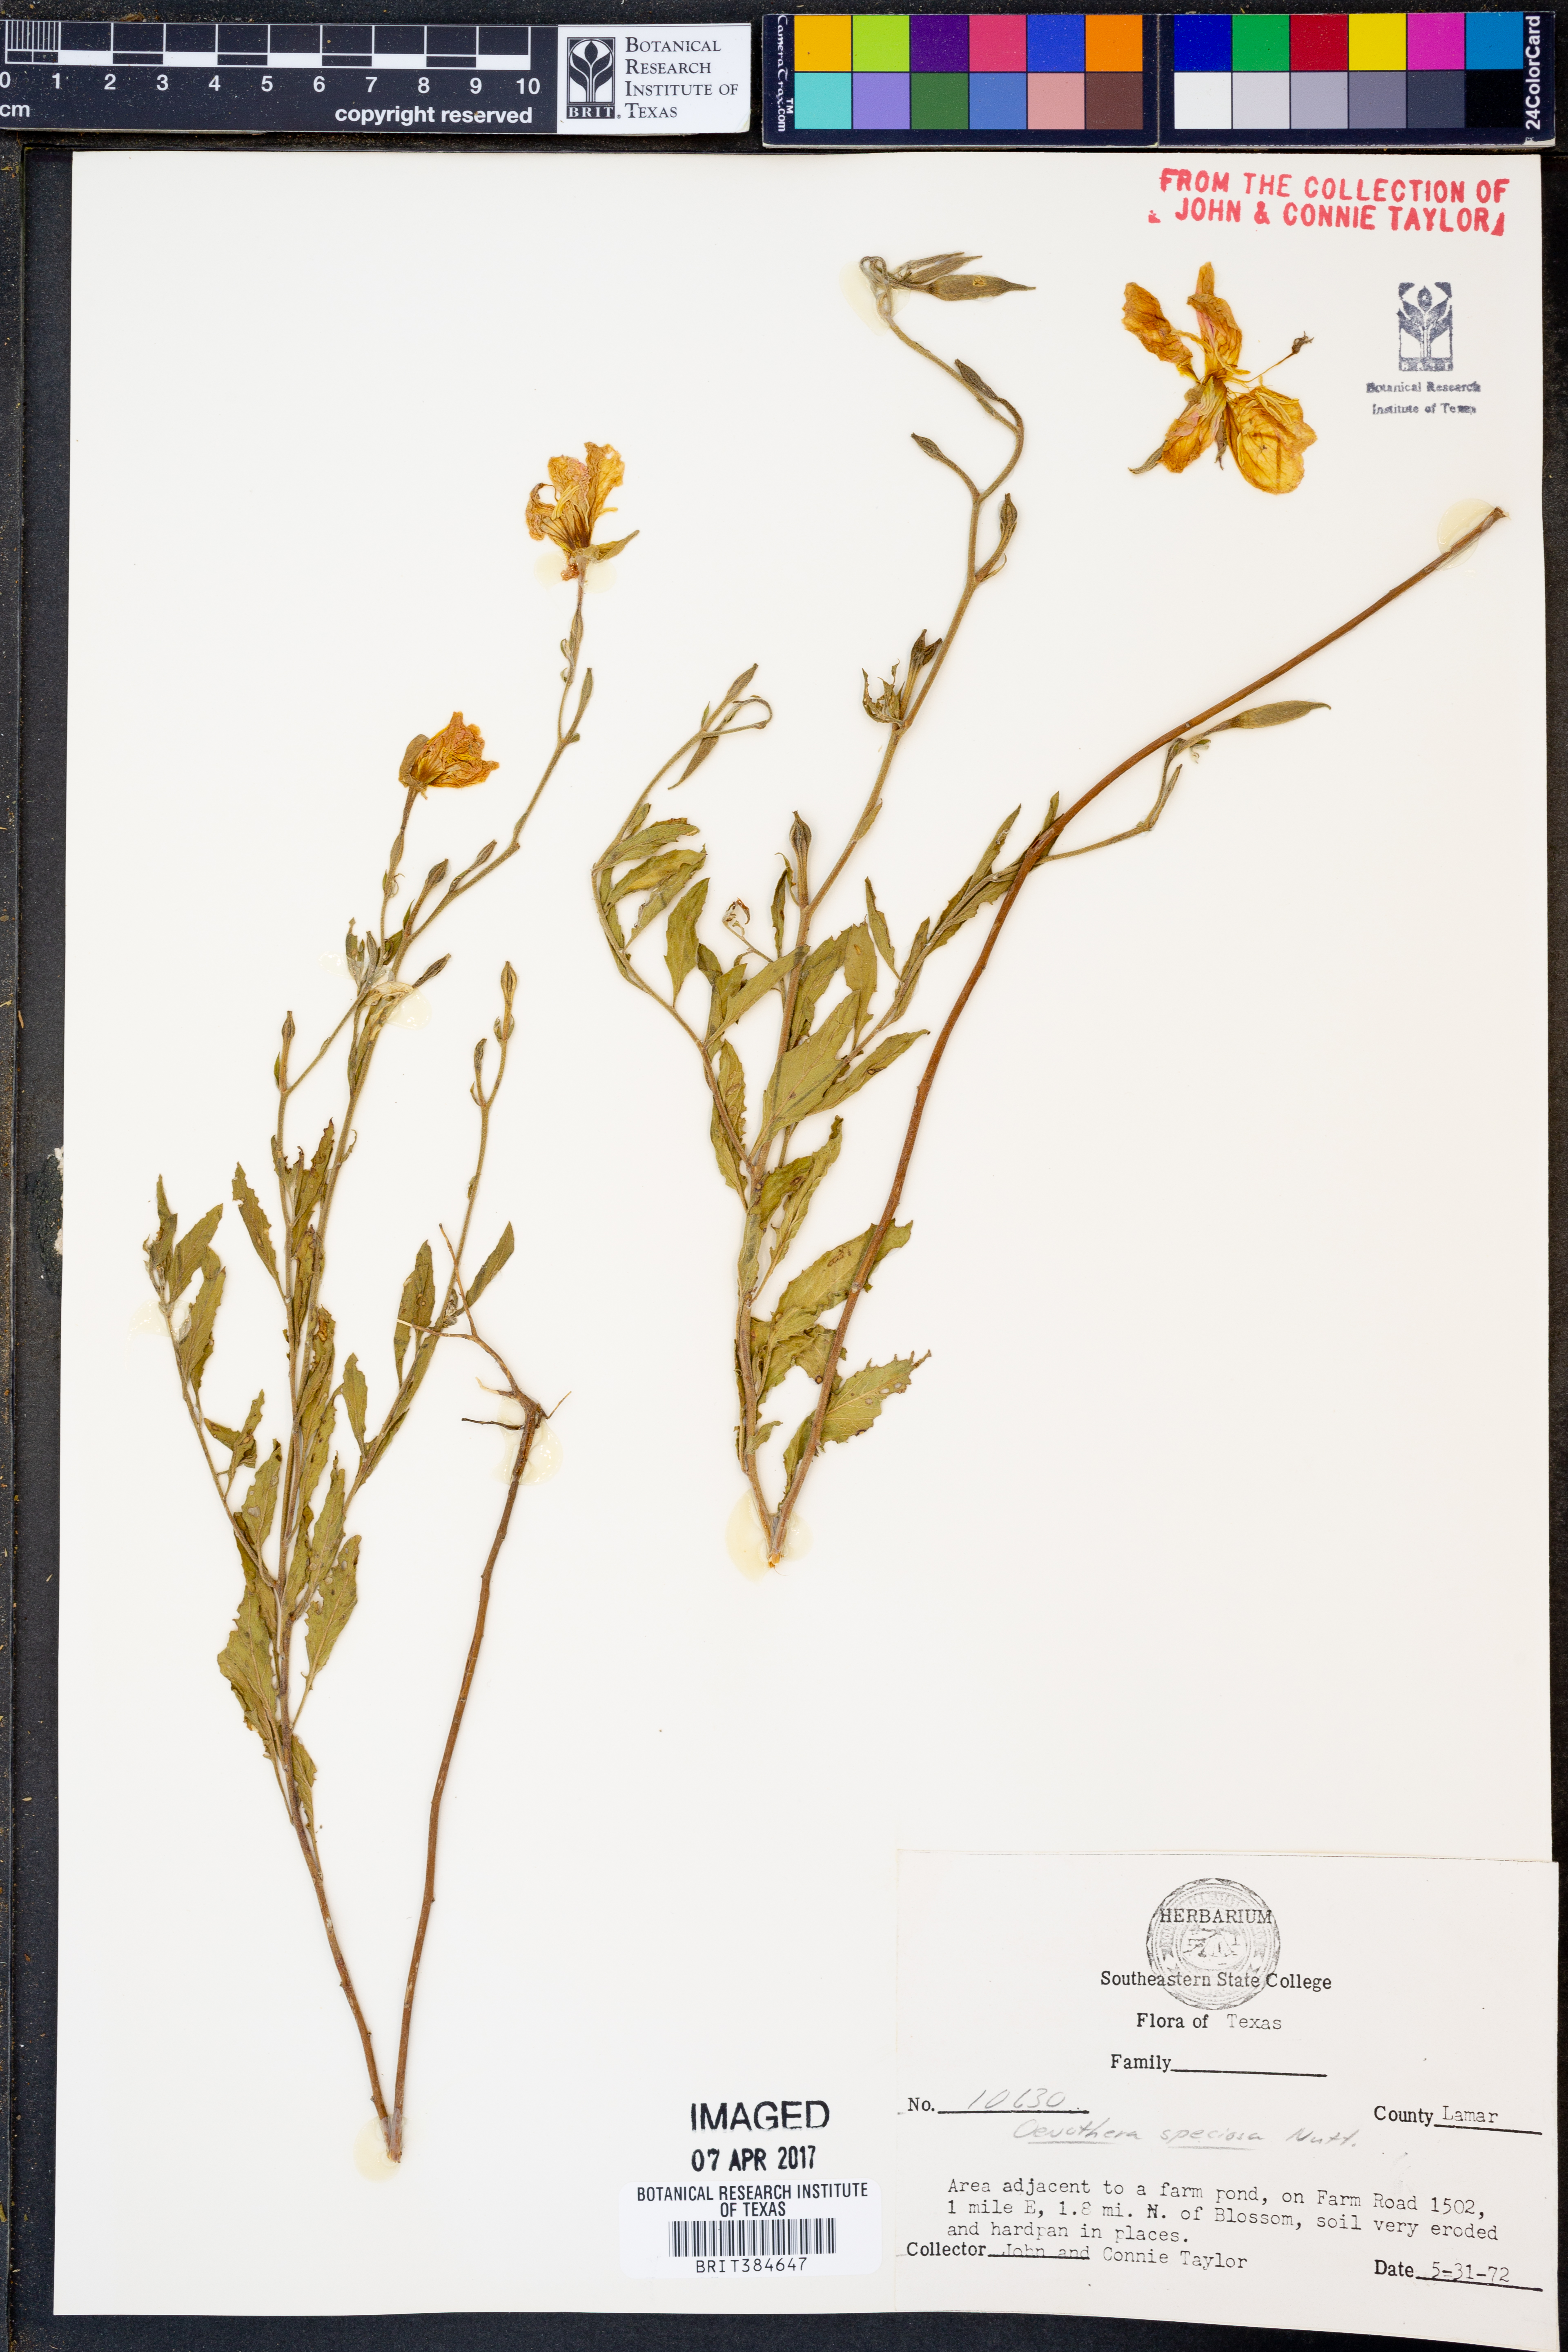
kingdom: Plantae
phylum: Tracheophyta
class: Magnoliopsida
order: Myrtales
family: Onagraceae
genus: Oenothera
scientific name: Oenothera speciosa
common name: White evening-primrose
